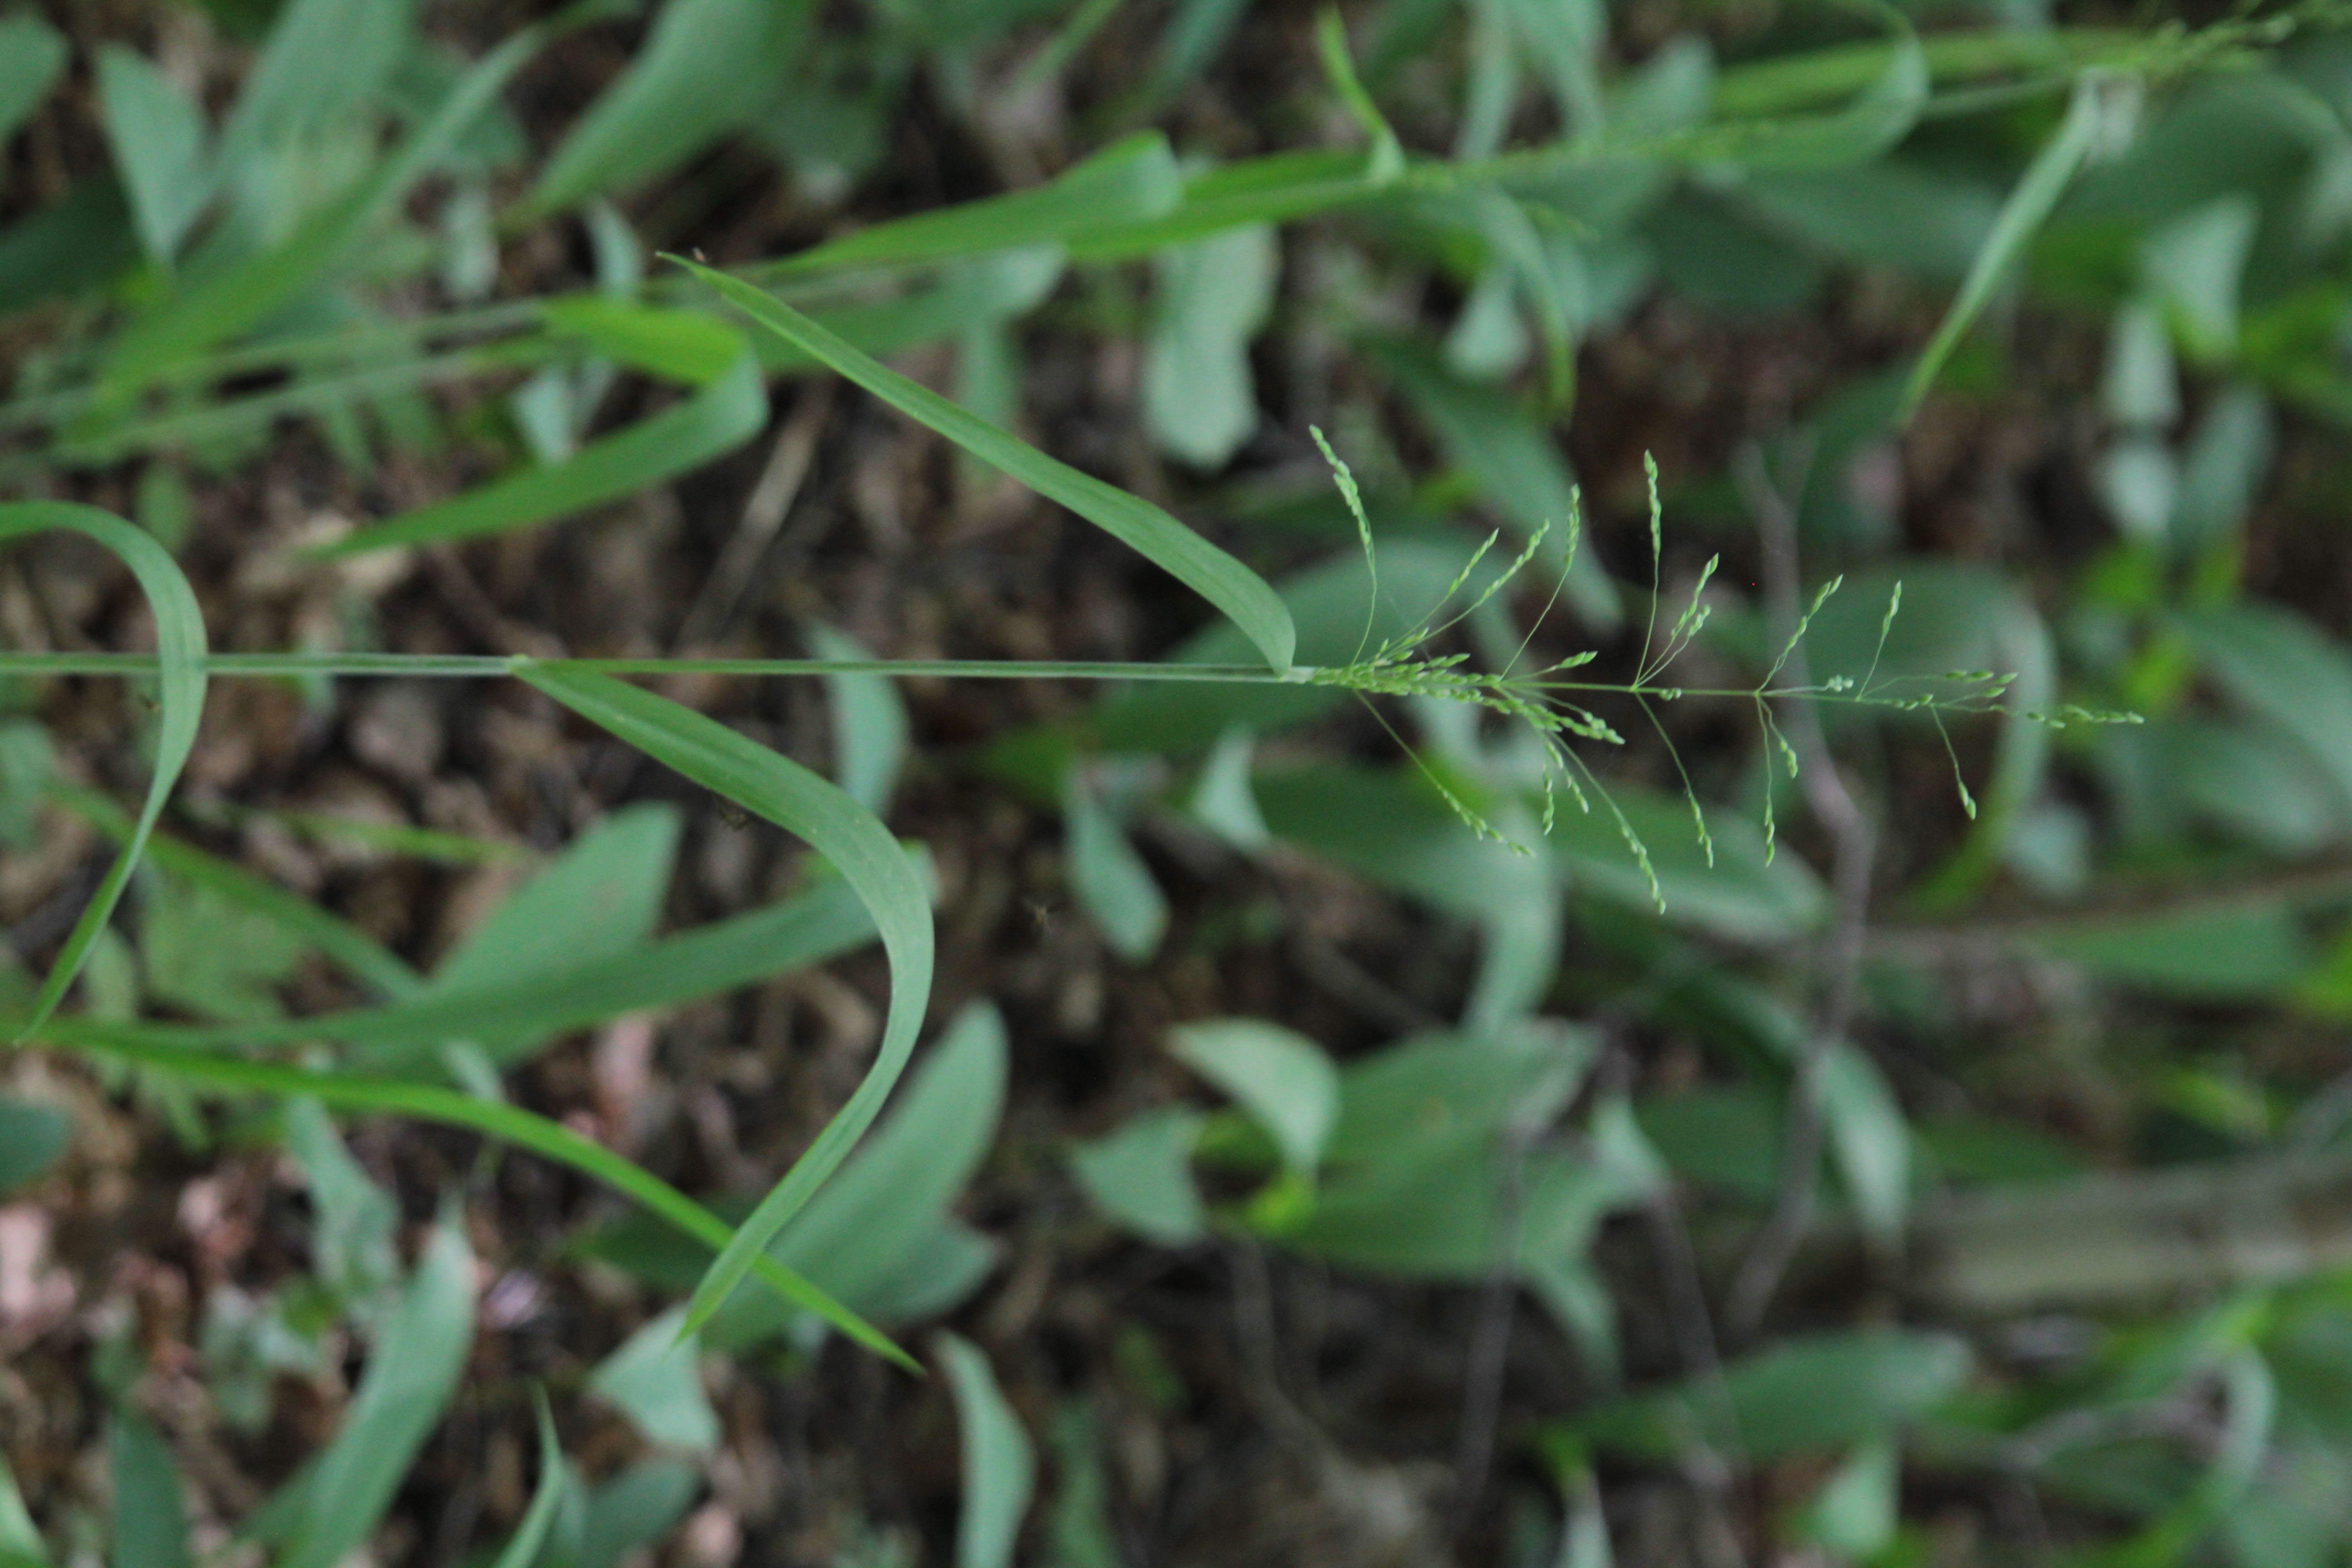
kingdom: Plantae
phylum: Tracheophyta
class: Liliopsida
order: Poales
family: Poaceae
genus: Milium
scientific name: Milium effusum
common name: Wood millet
